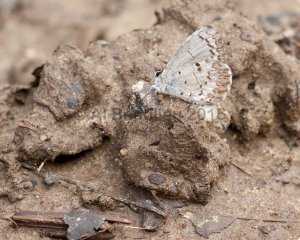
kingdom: Animalia
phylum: Arthropoda
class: Insecta
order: Lepidoptera
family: Lycaenidae
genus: Celastrina
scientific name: Celastrina lucia
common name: Northern Spring Azure
